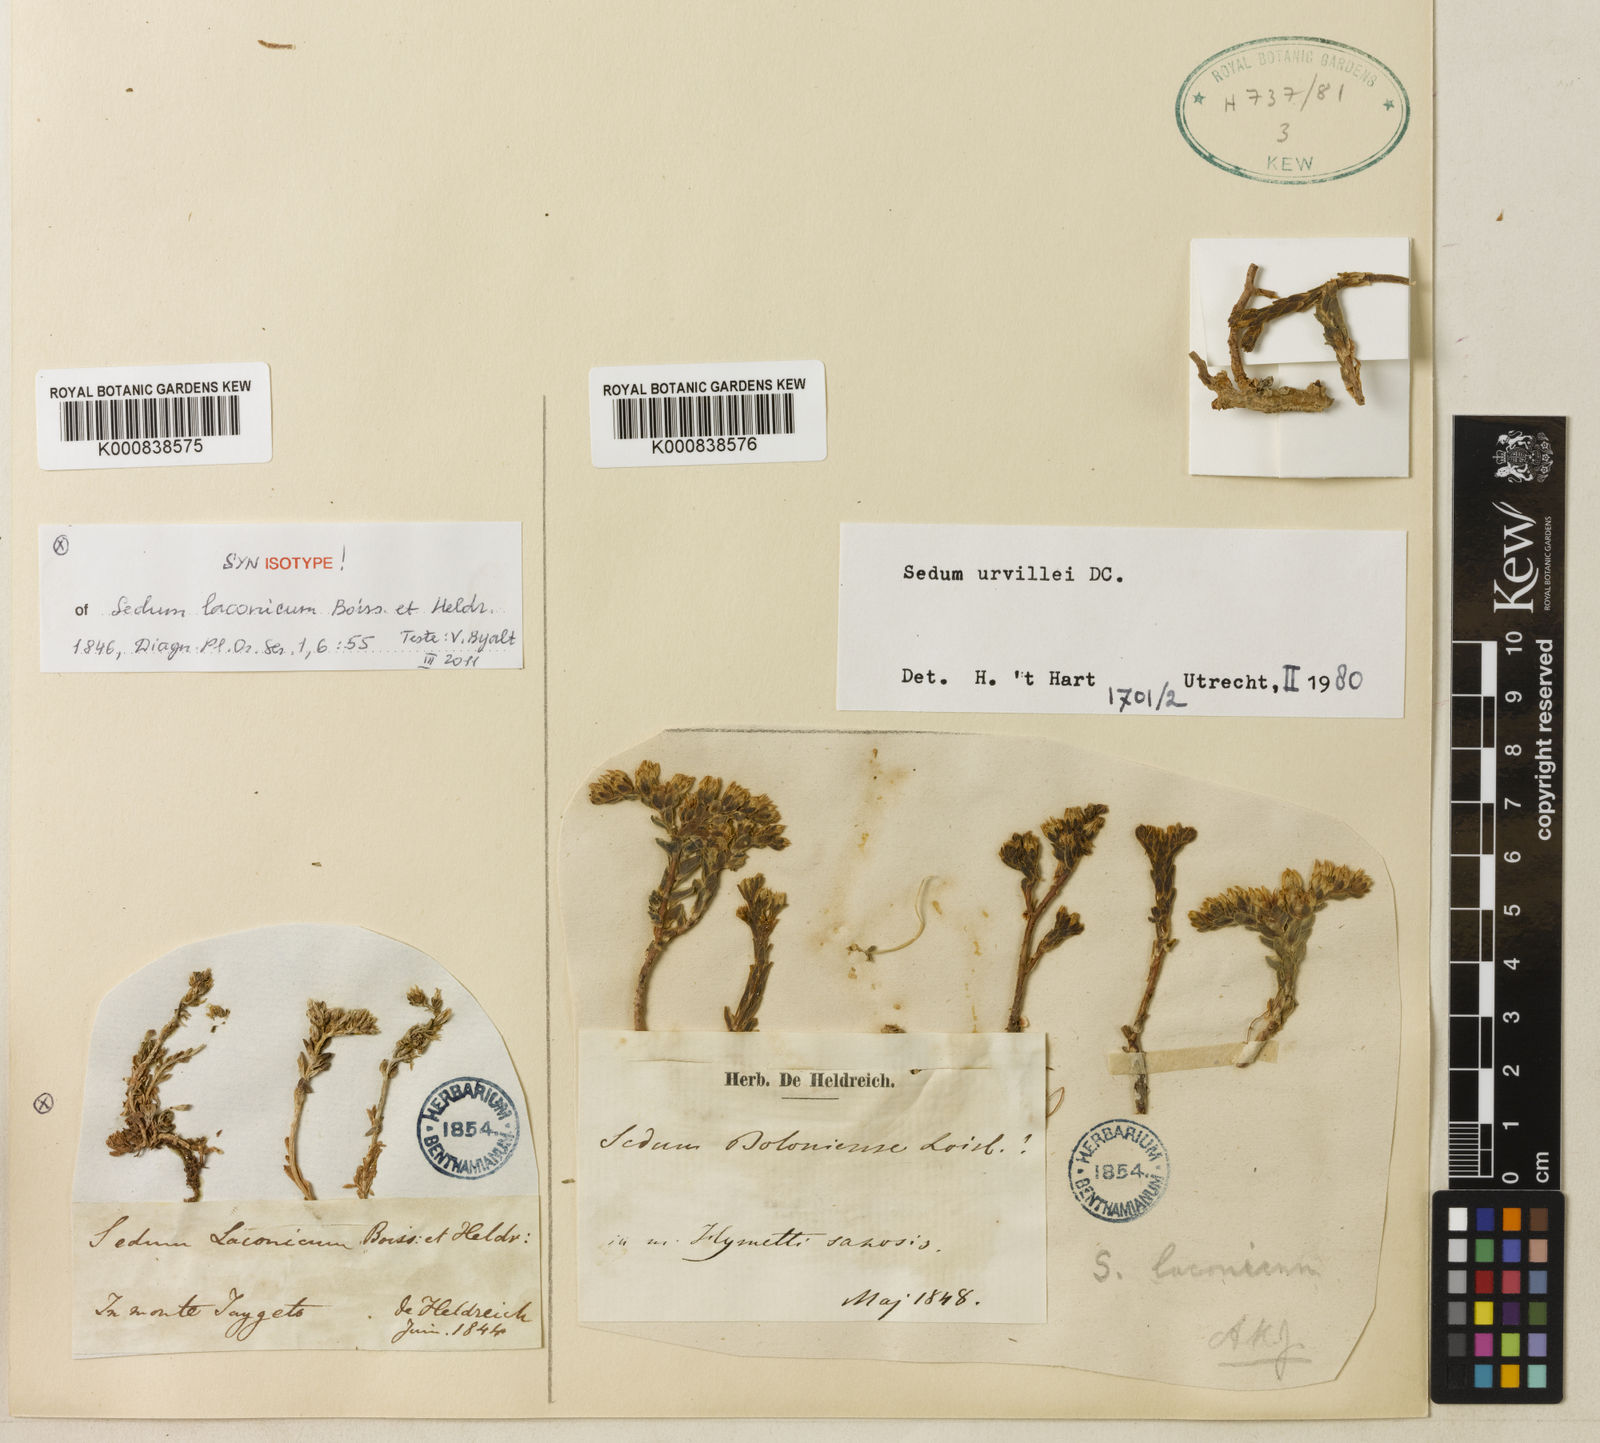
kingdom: Plantae
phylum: Tracheophyta
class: Magnoliopsida
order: Saxifragales
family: Crassulaceae
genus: Sedum
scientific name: Sedum laconicum
